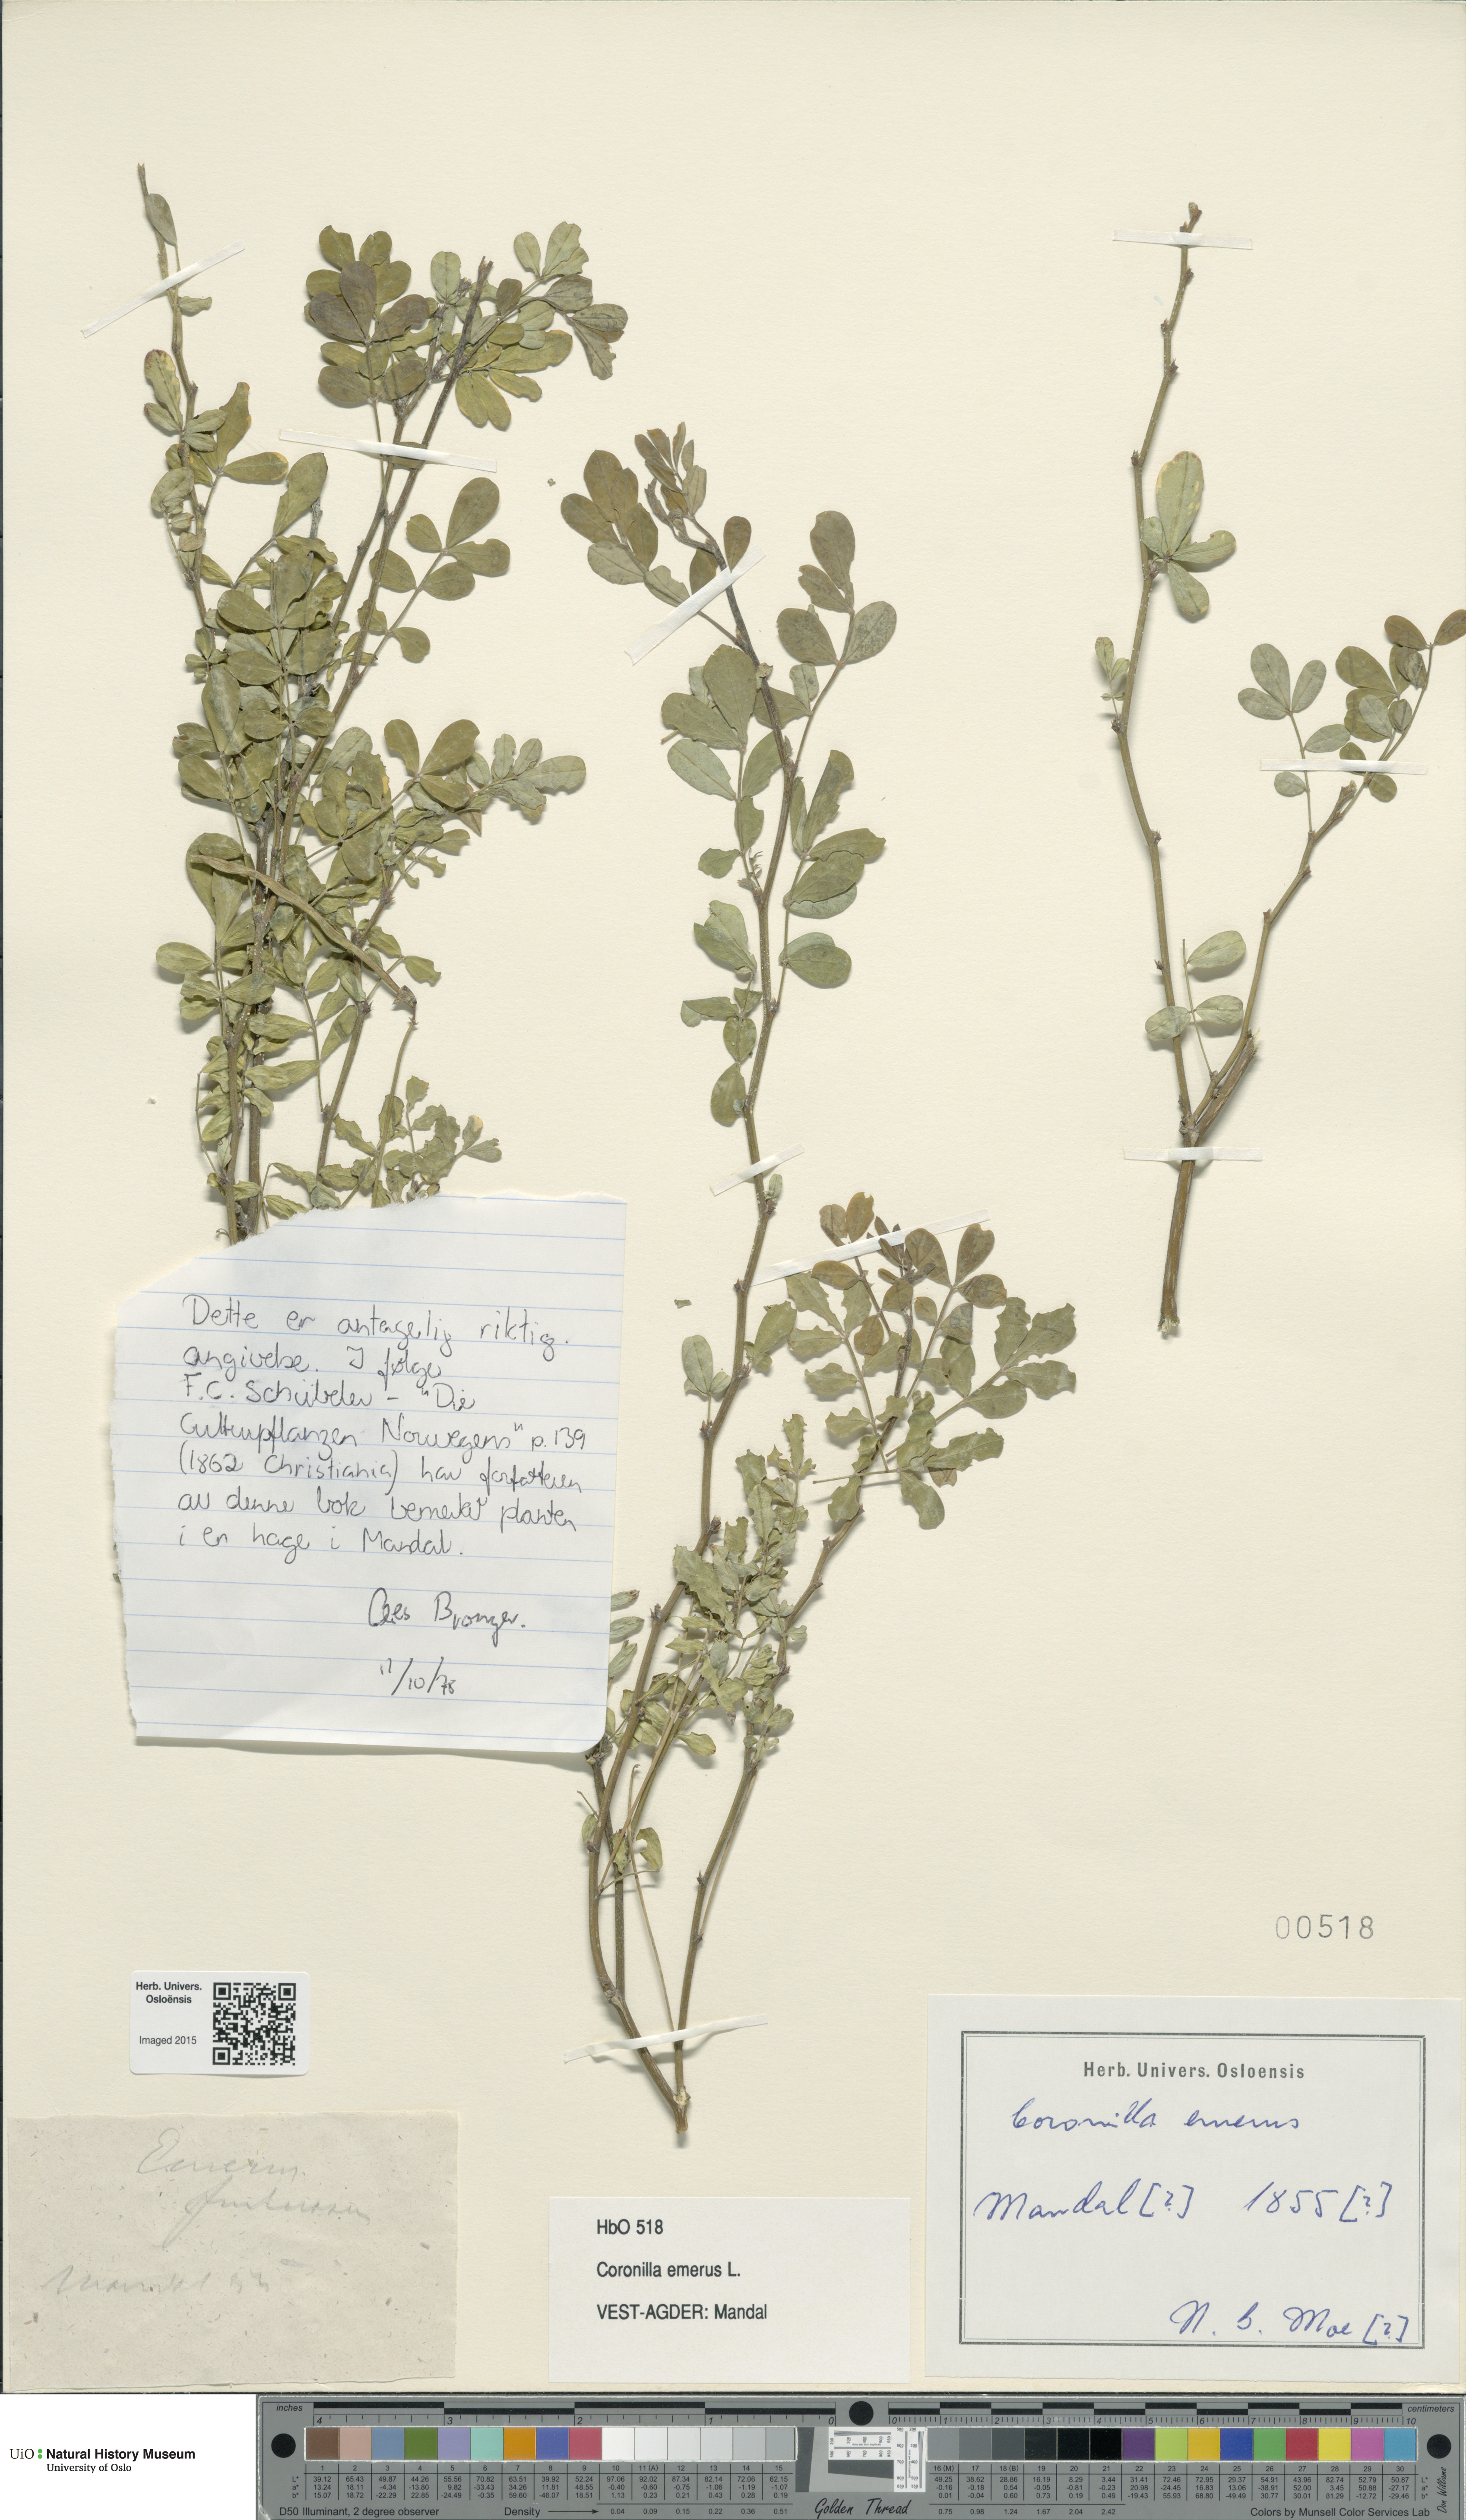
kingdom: Plantae
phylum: Tracheophyta
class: Magnoliopsida
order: Fabales
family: Fabaceae
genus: Hippocrepis
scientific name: Hippocrepis emerus
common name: Scorpion senna
